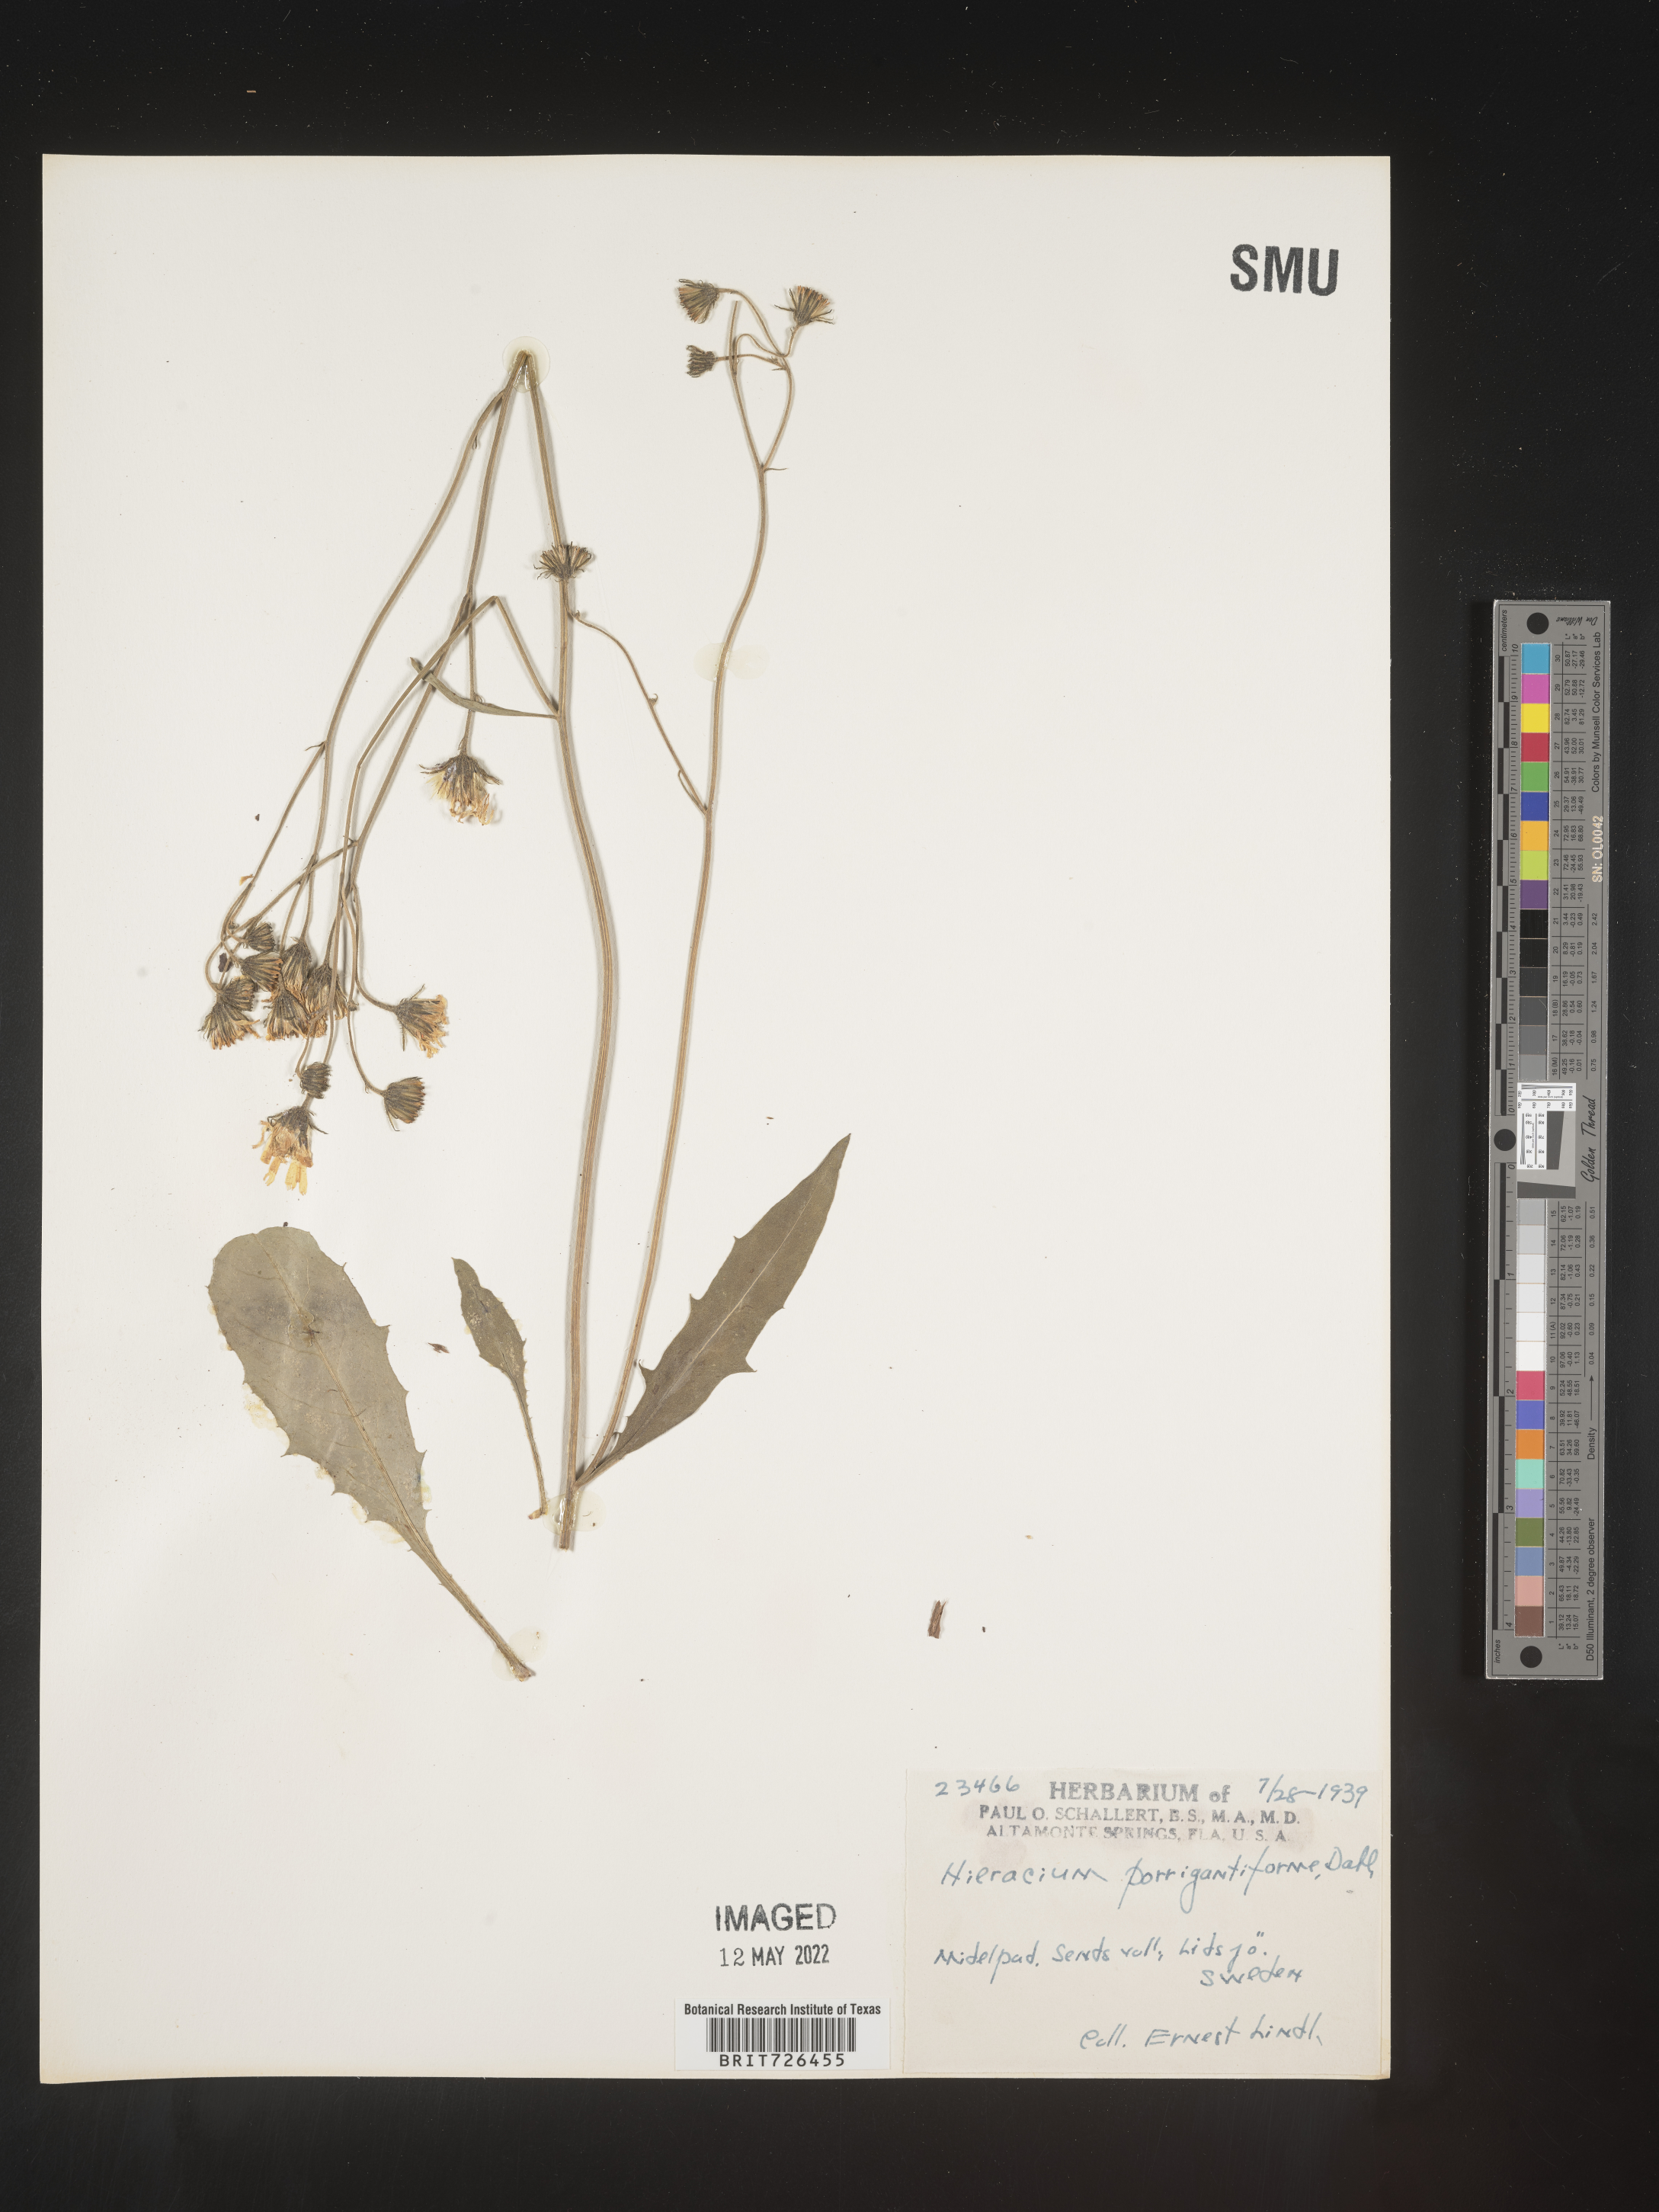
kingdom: Plantae
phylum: Tracheophyta
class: Magnoliopsida
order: Asterales
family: Asteraceae
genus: Hieracium
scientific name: Hieracium
